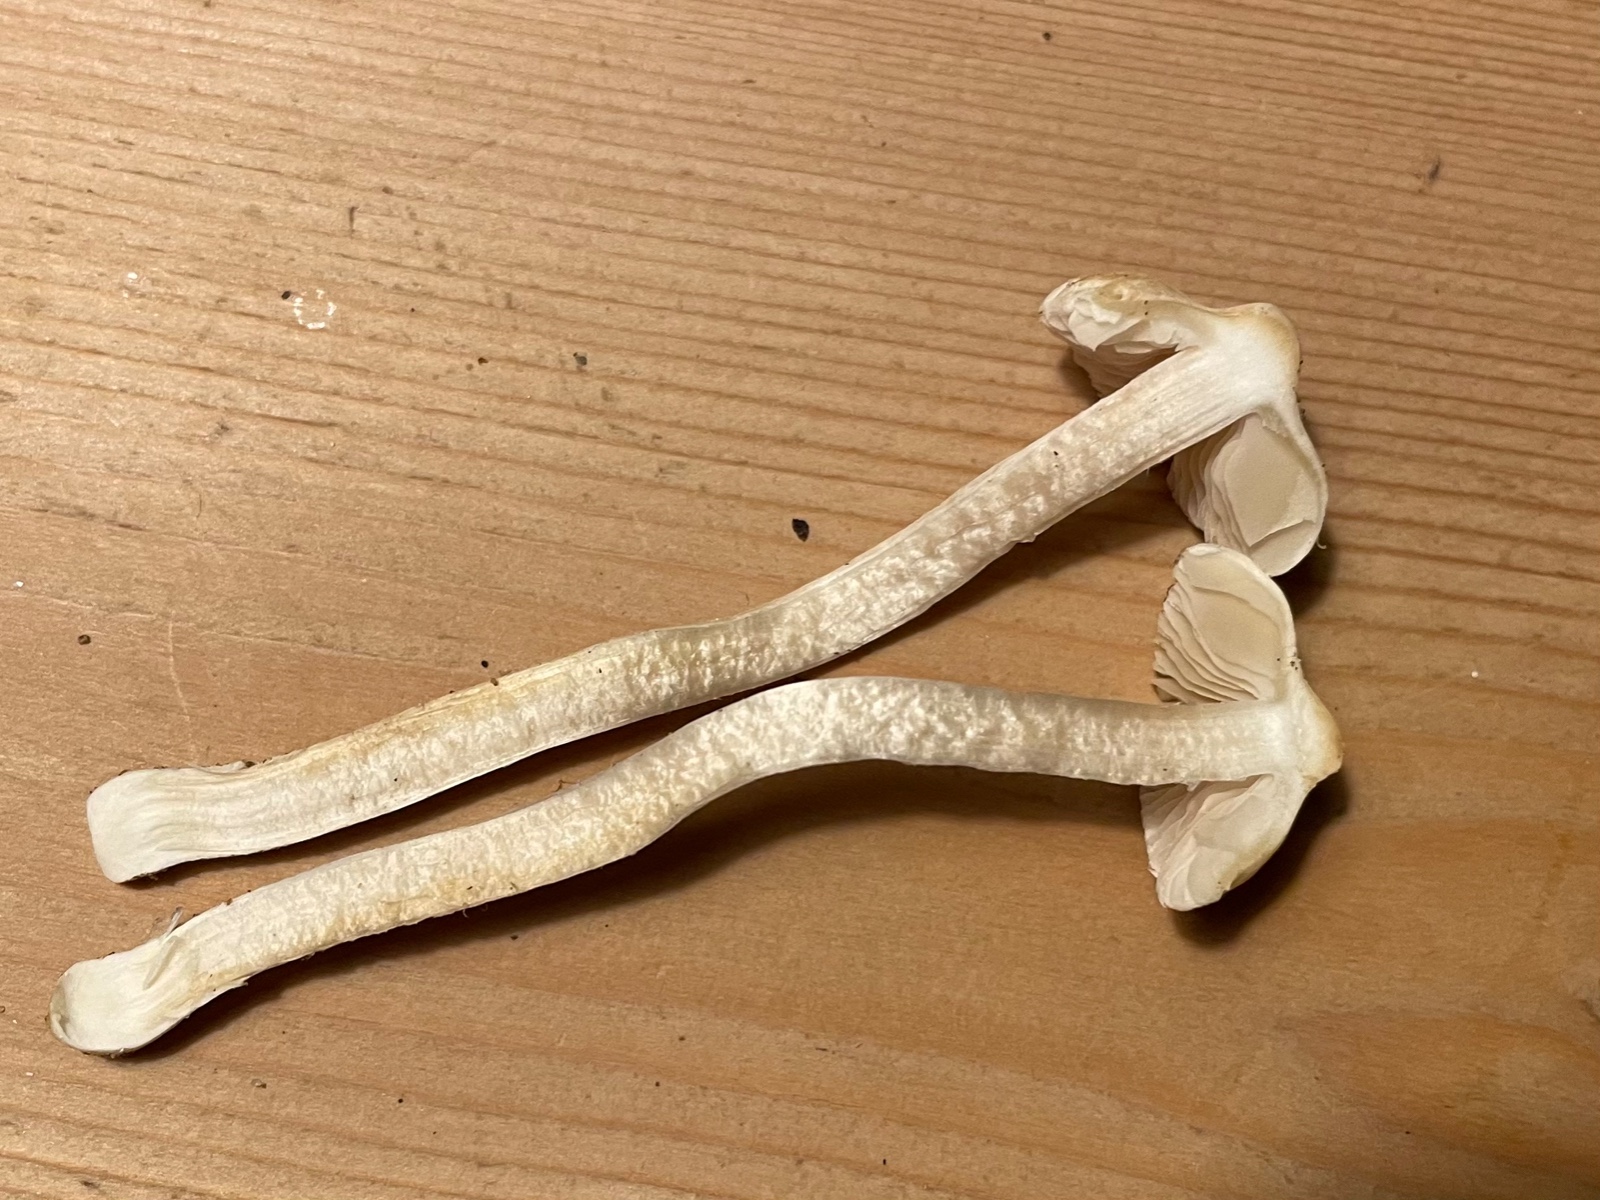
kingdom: Fungi
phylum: Basidiomycota
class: Agaricomycetes
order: Agaricales
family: Inocybaceae
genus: Inocybe
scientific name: Inocybe
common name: almindelig trævlhat
